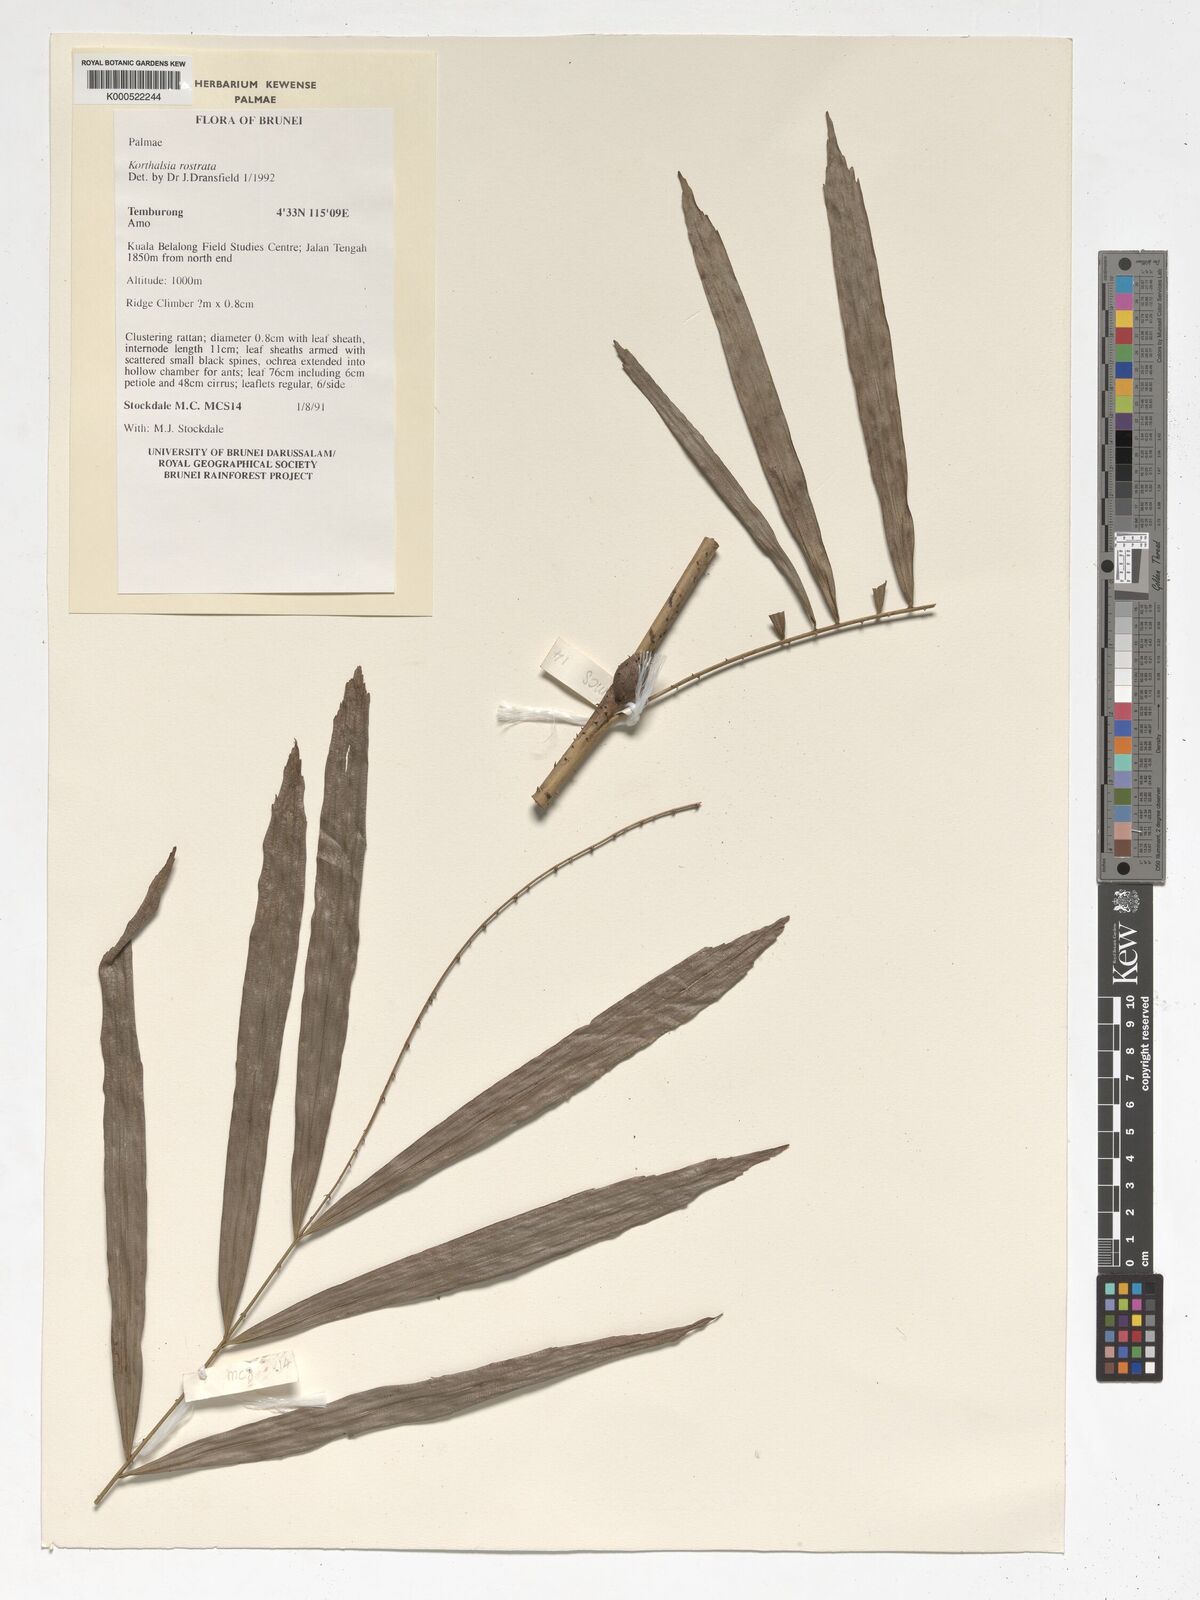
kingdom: Plantae
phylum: Tracheophyta
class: Liliopsida
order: Arecales
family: Arecaceae
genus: Korthalsia
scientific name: Korthalsia rostrata
